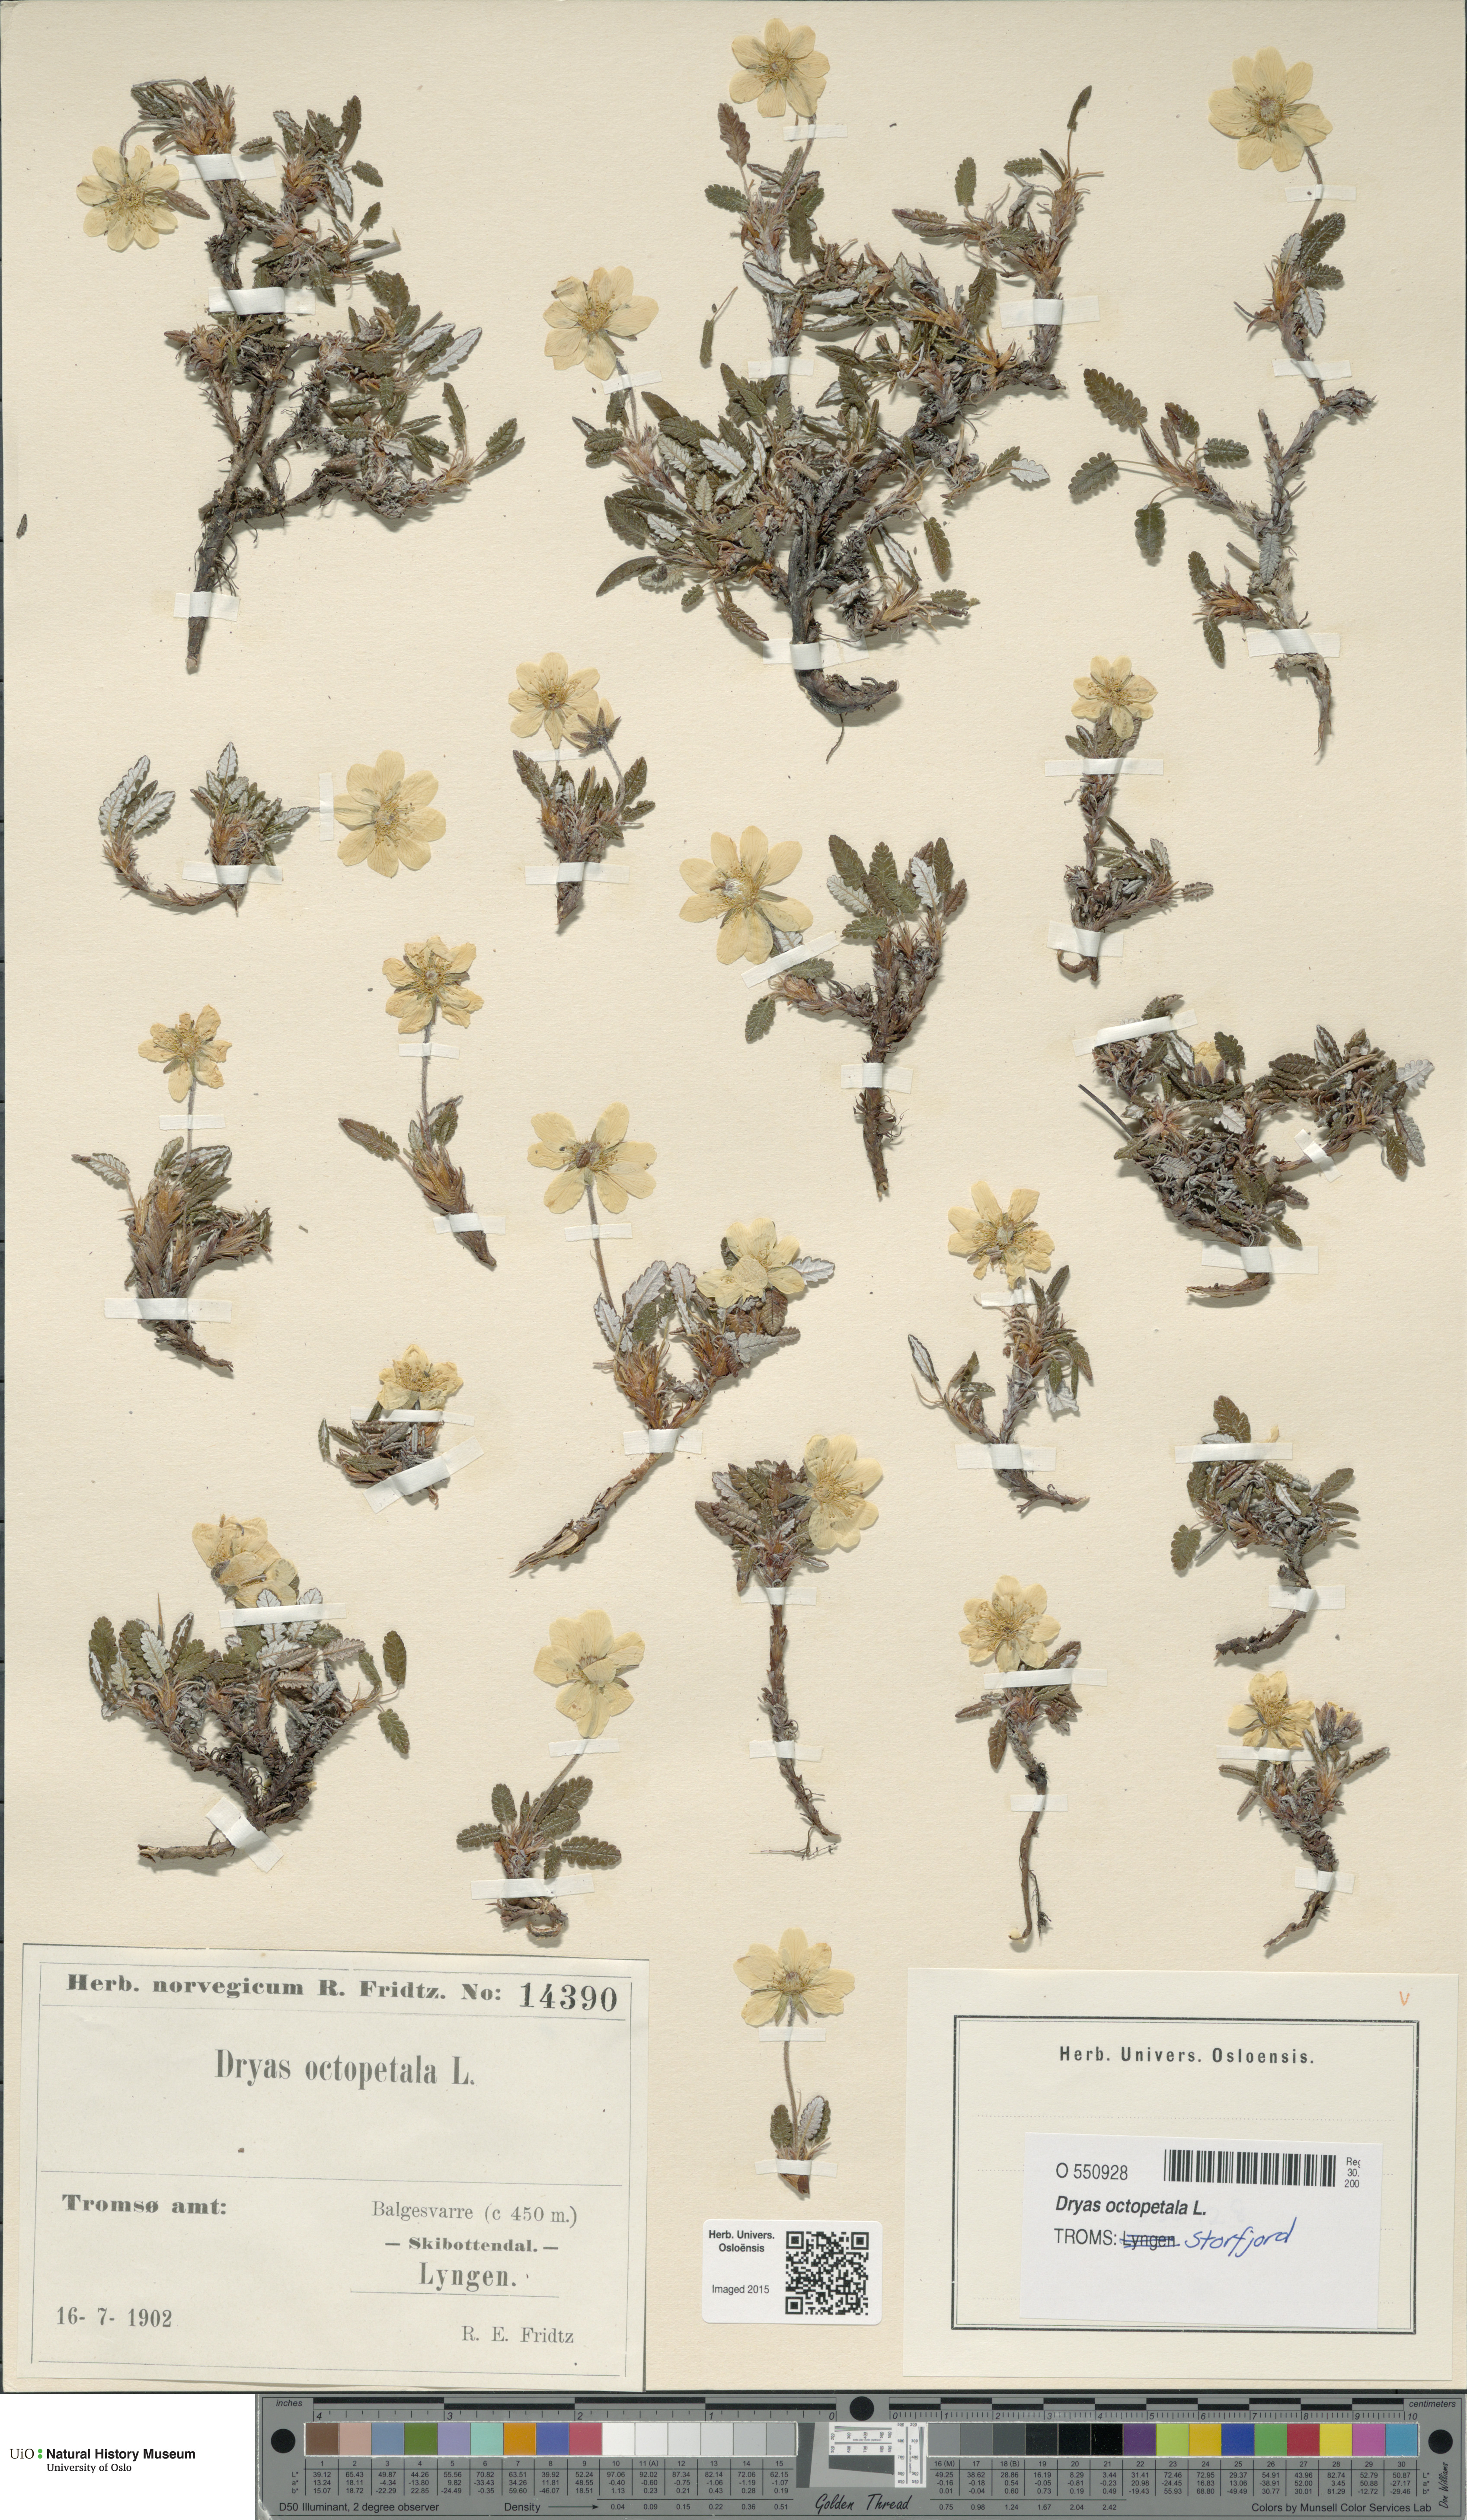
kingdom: Plantae
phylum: Tracheophyta
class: Magnoliopsida
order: Rosales
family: Rosaceae
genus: Dryas
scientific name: Dryas octopetala
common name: Eight-petal mountain-avens
